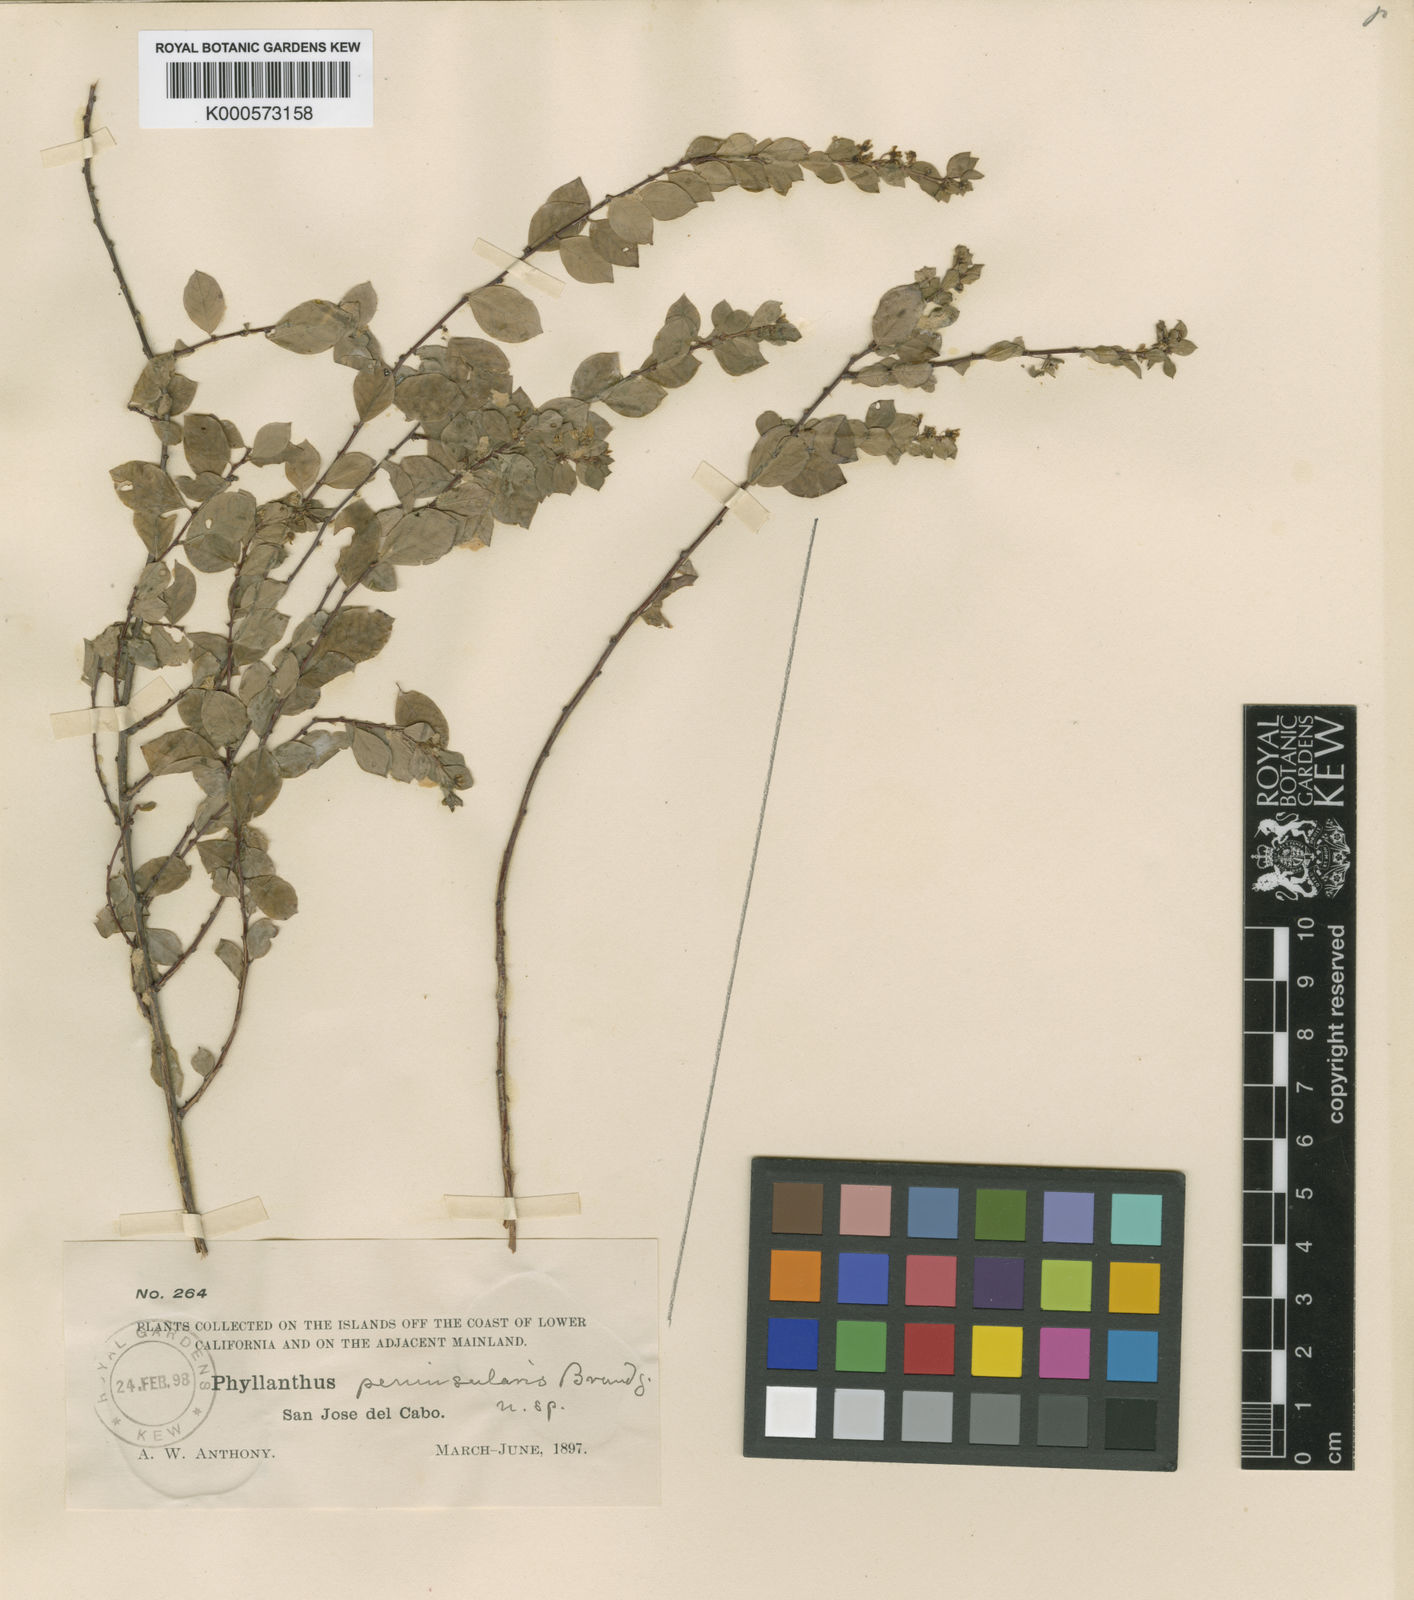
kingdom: Plantae
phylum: Tracheophyta
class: Magnoliopsida
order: Malpighiales
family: Phyllanthaceae
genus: Phyllanthus
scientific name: Phyllanthus peninsularis
